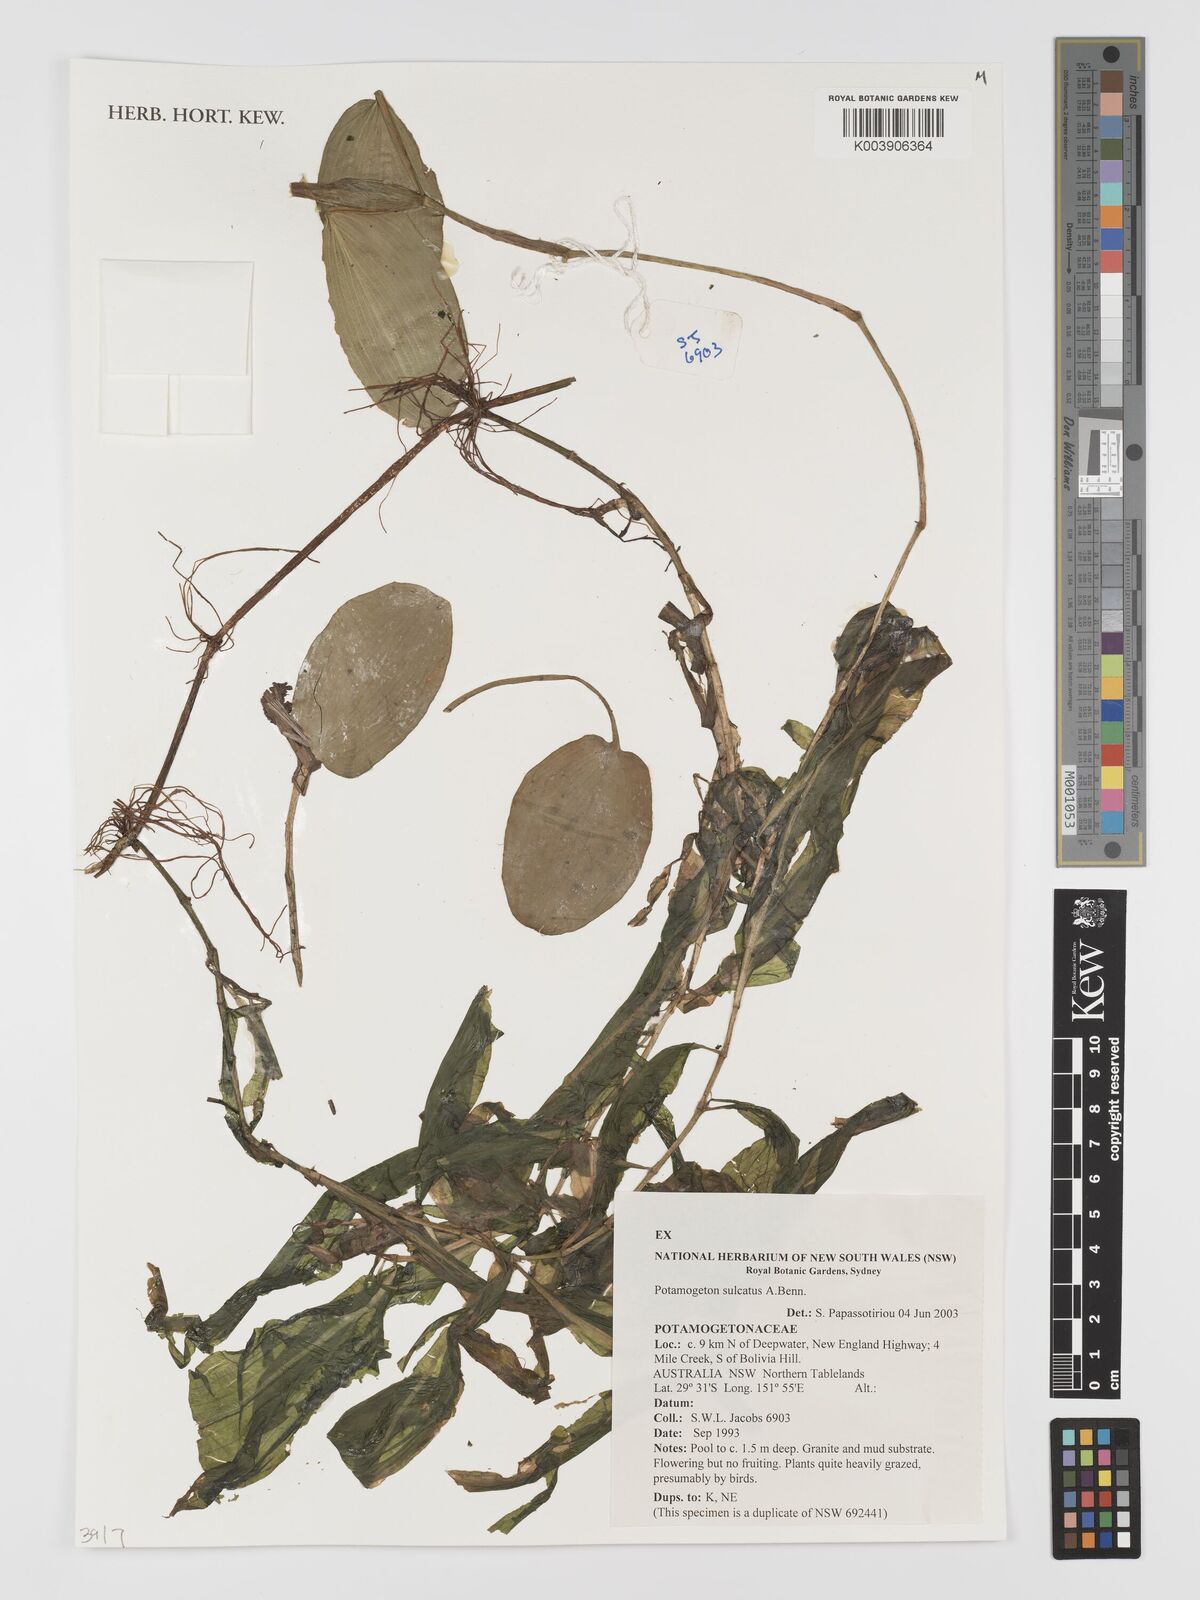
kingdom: Plantae
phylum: Tracheophyta
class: Liliopsida
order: Alismatales
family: Potamogetonaceae
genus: Potamogeton
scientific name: Potamogeton sulcatus
